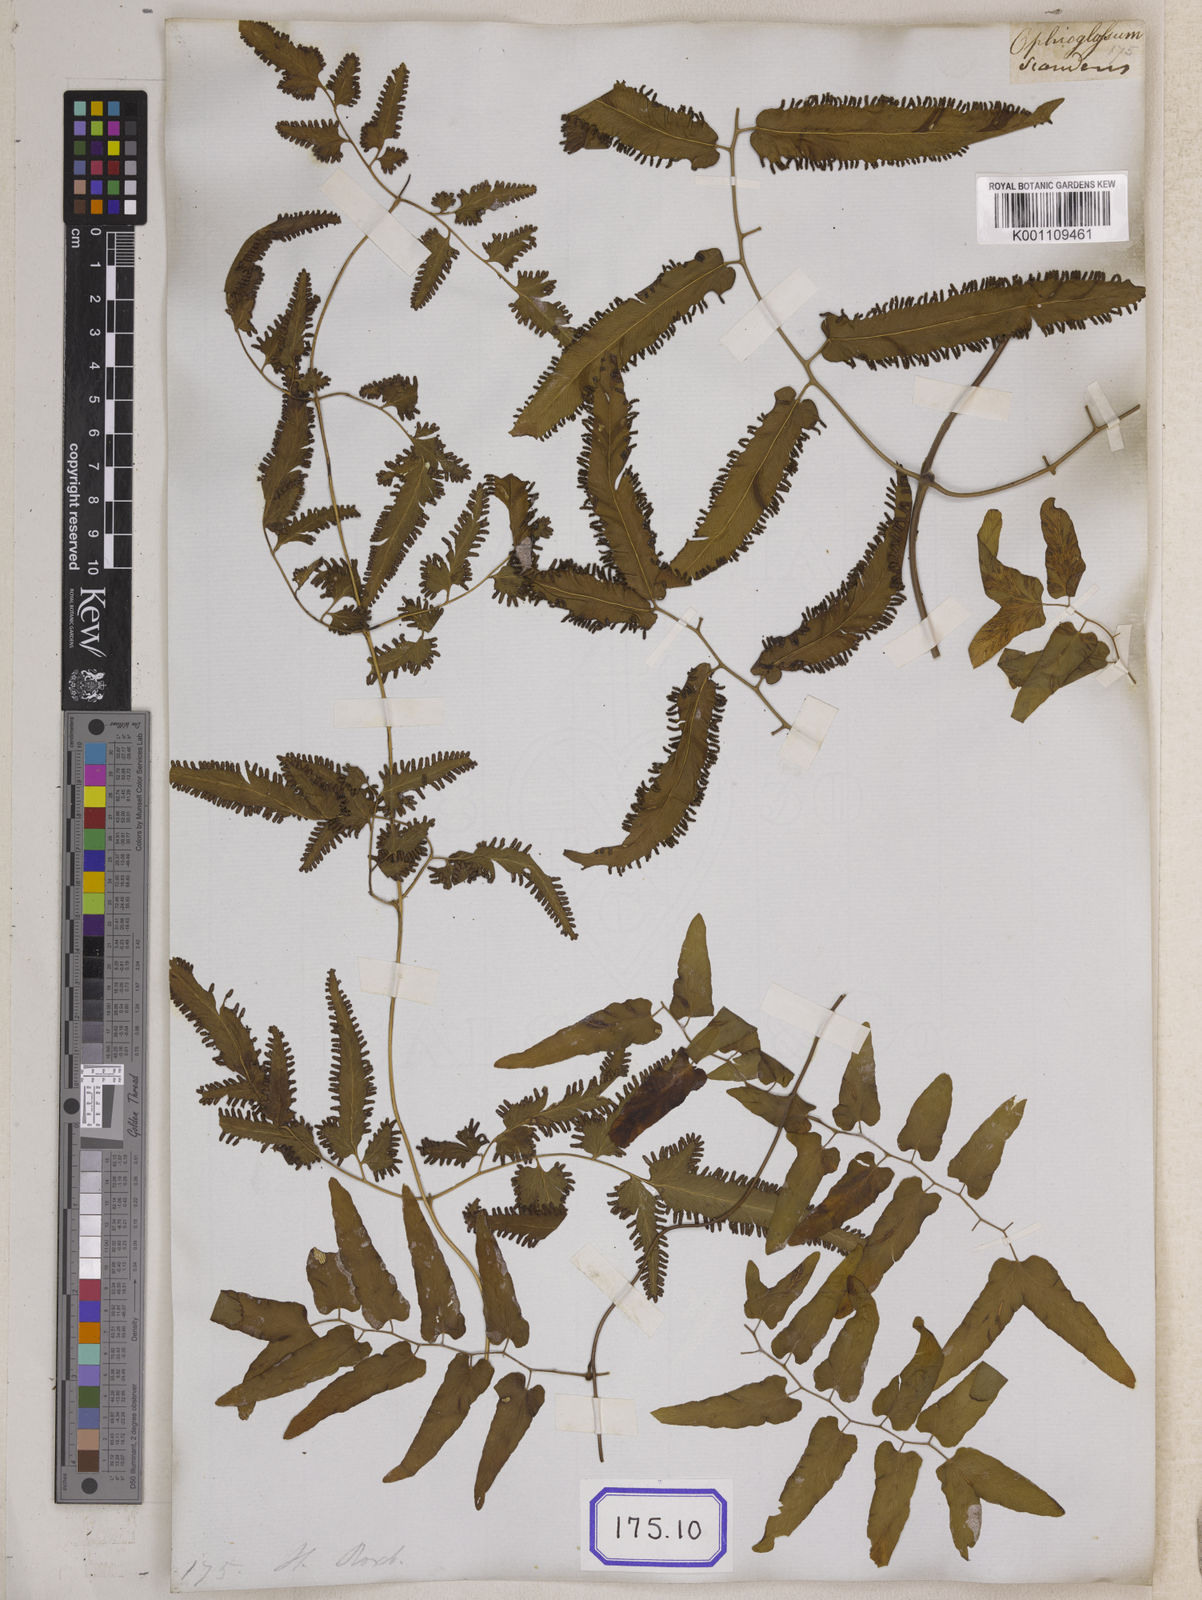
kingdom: Plantae
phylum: Tracheophyta
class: Polypodiopsida
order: Schizaeales
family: Lygodiaceae
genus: Lygodium
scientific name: Lygodium flexuosum
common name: Maidenhair creeper
